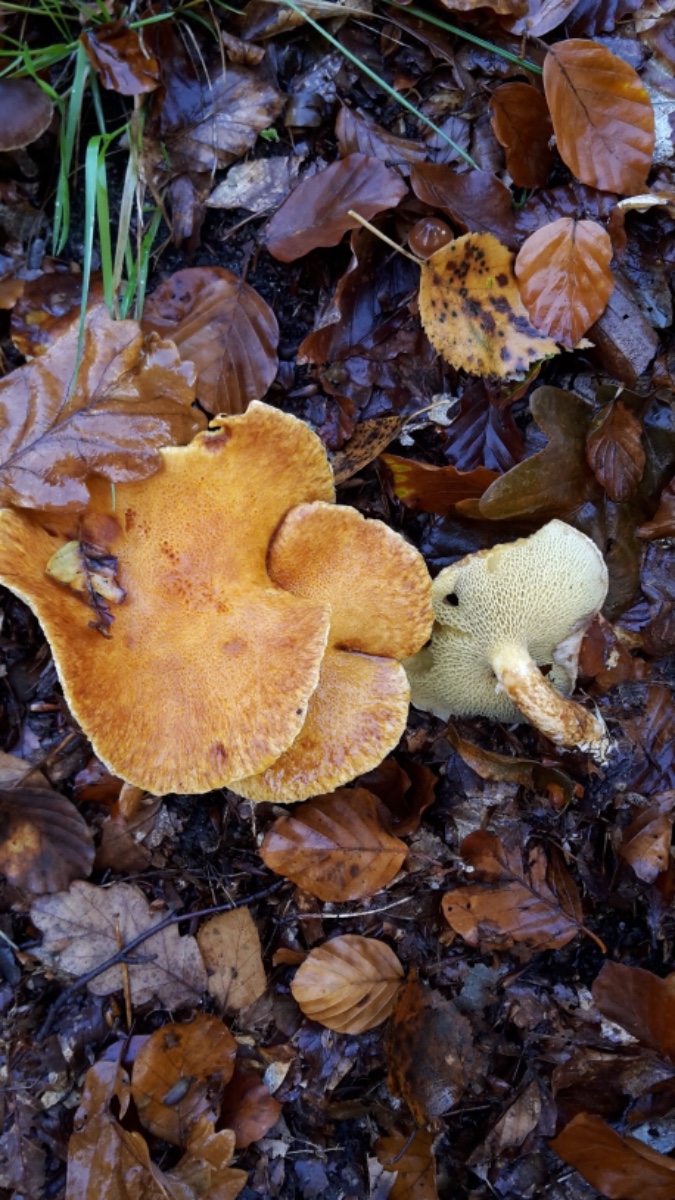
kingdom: Fungi
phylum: Basidiomycota
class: Agaricomycetes
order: Boletales
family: Suillaceae
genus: Suillus
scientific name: Suillus cavipes
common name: hulstokket slimrørhat, gul form
